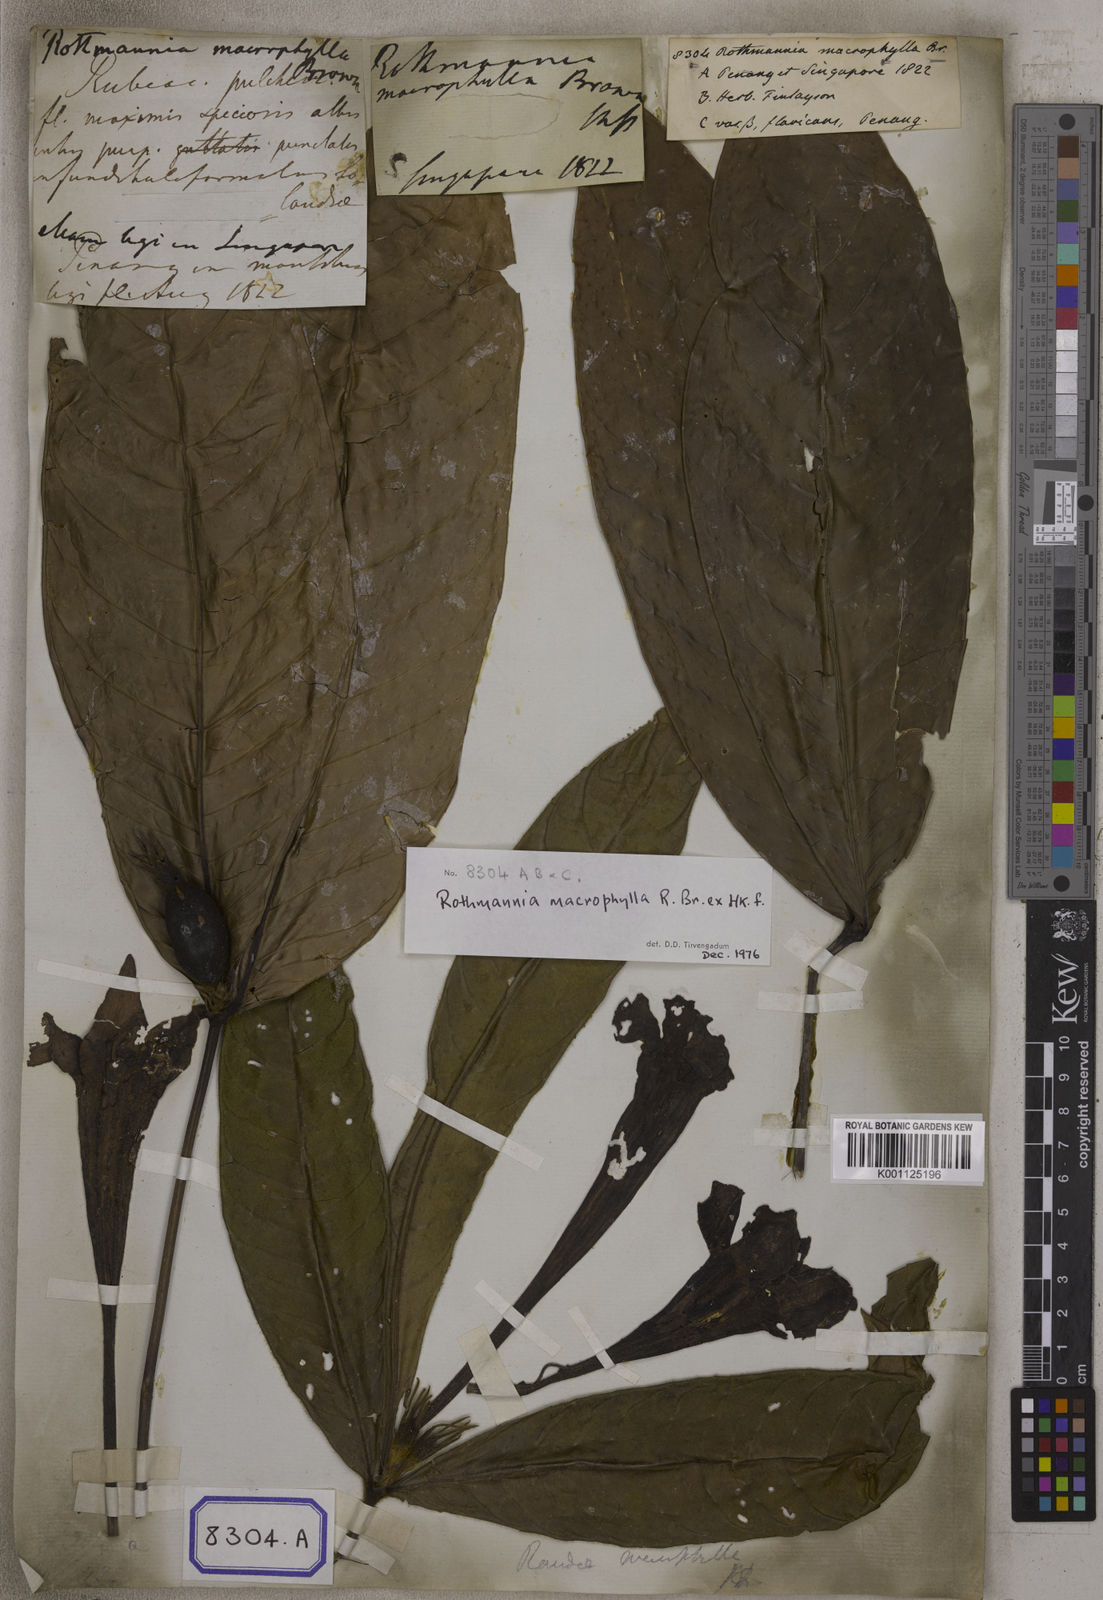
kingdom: Plantae
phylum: Tracheophyta
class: Magnoliopsida
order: Gentianales
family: Rubiaceae
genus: Singaporandia
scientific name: Singaporandia macrophylla
